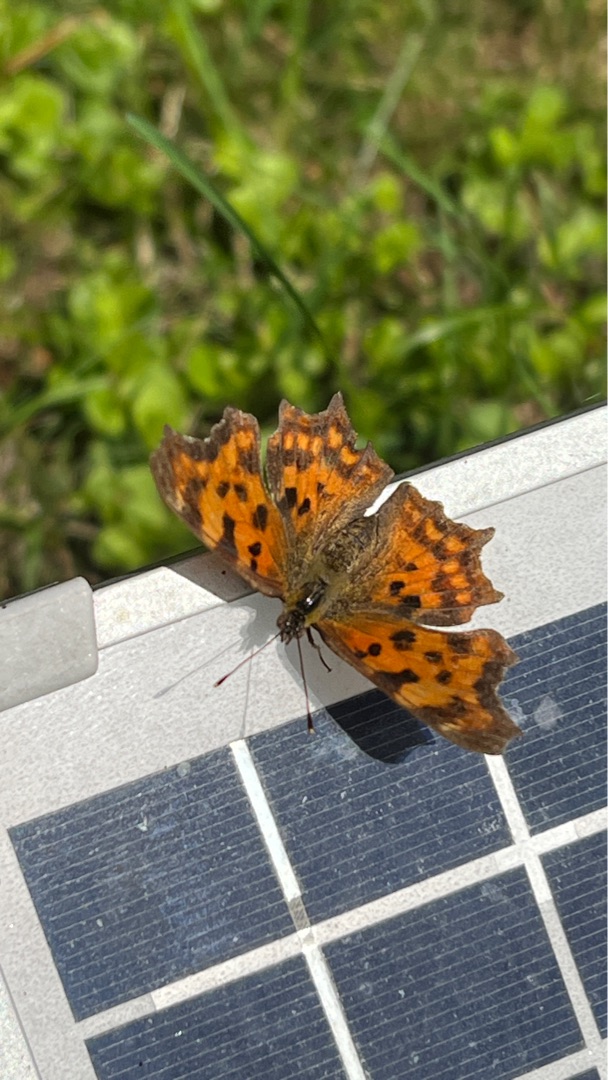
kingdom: Animalia
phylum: Arthropoda
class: Insecta
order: Lepidoptera
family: Nymphalidae
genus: Polygonia
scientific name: Polygonia c-album
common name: Det hvide C
